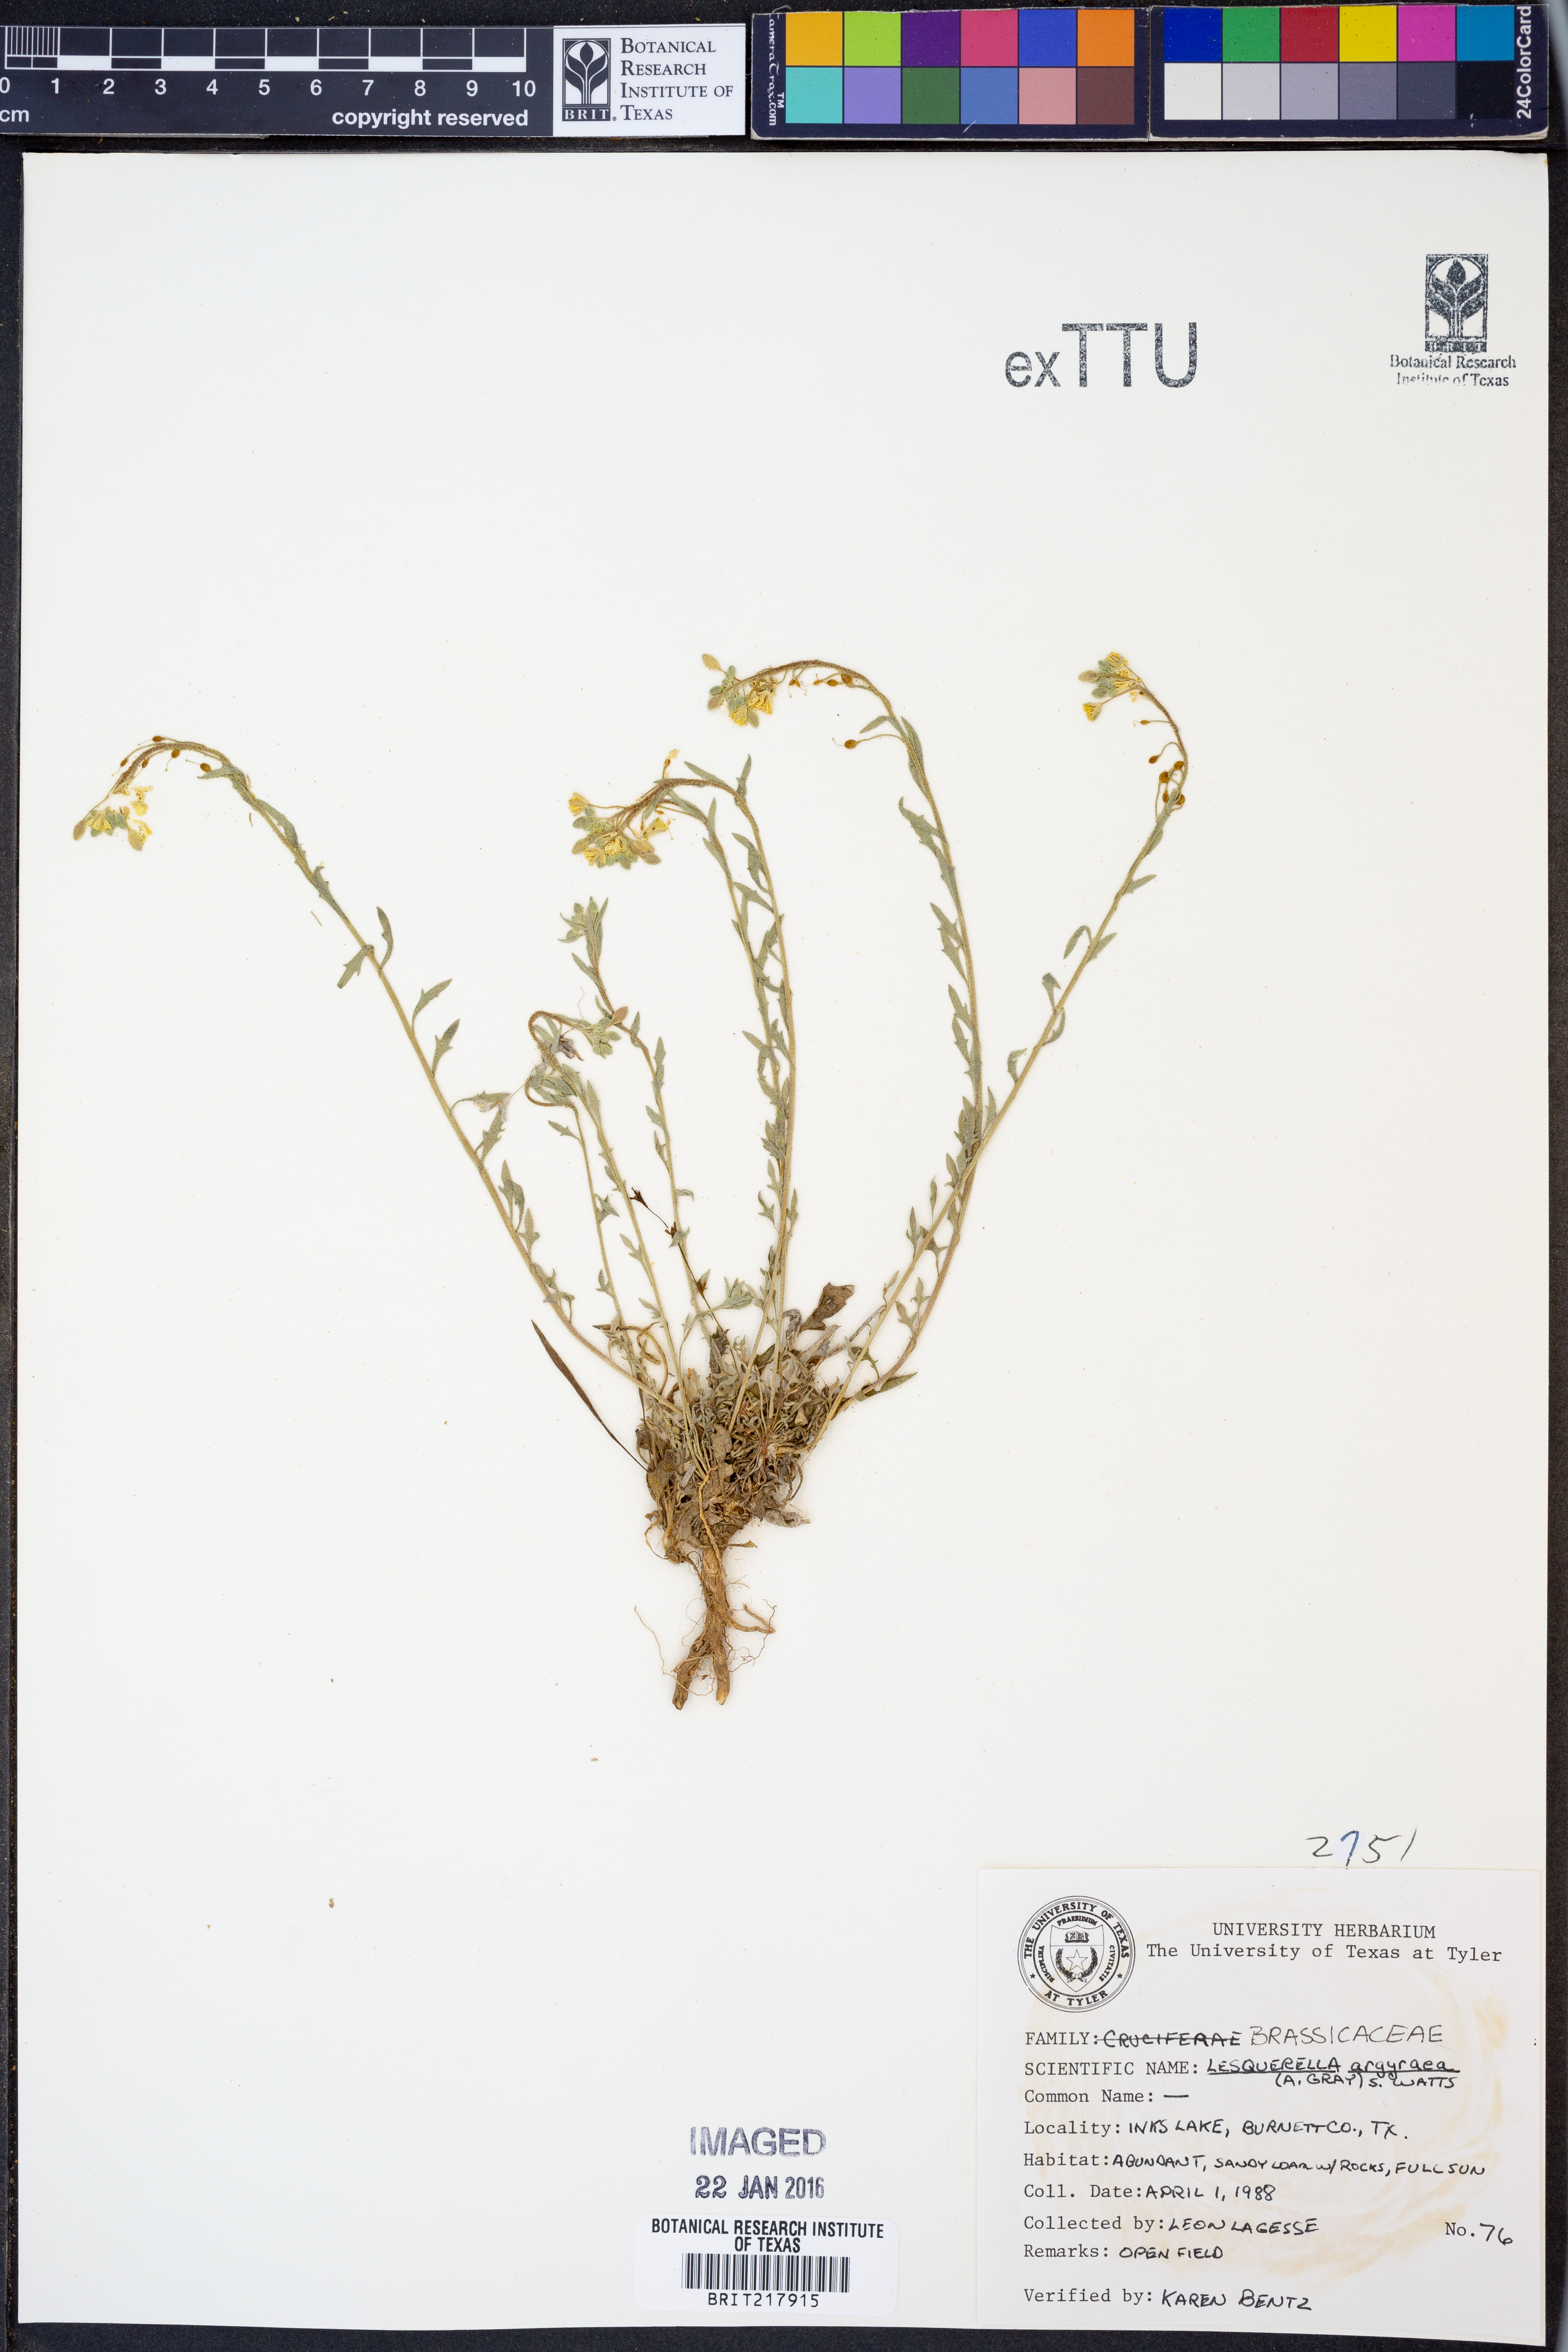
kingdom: Plantae
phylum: Tracheophyta
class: Magnoliopsida
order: Brassicales
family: Brassicaceae
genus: Physaria
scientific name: Physaria argyraea
